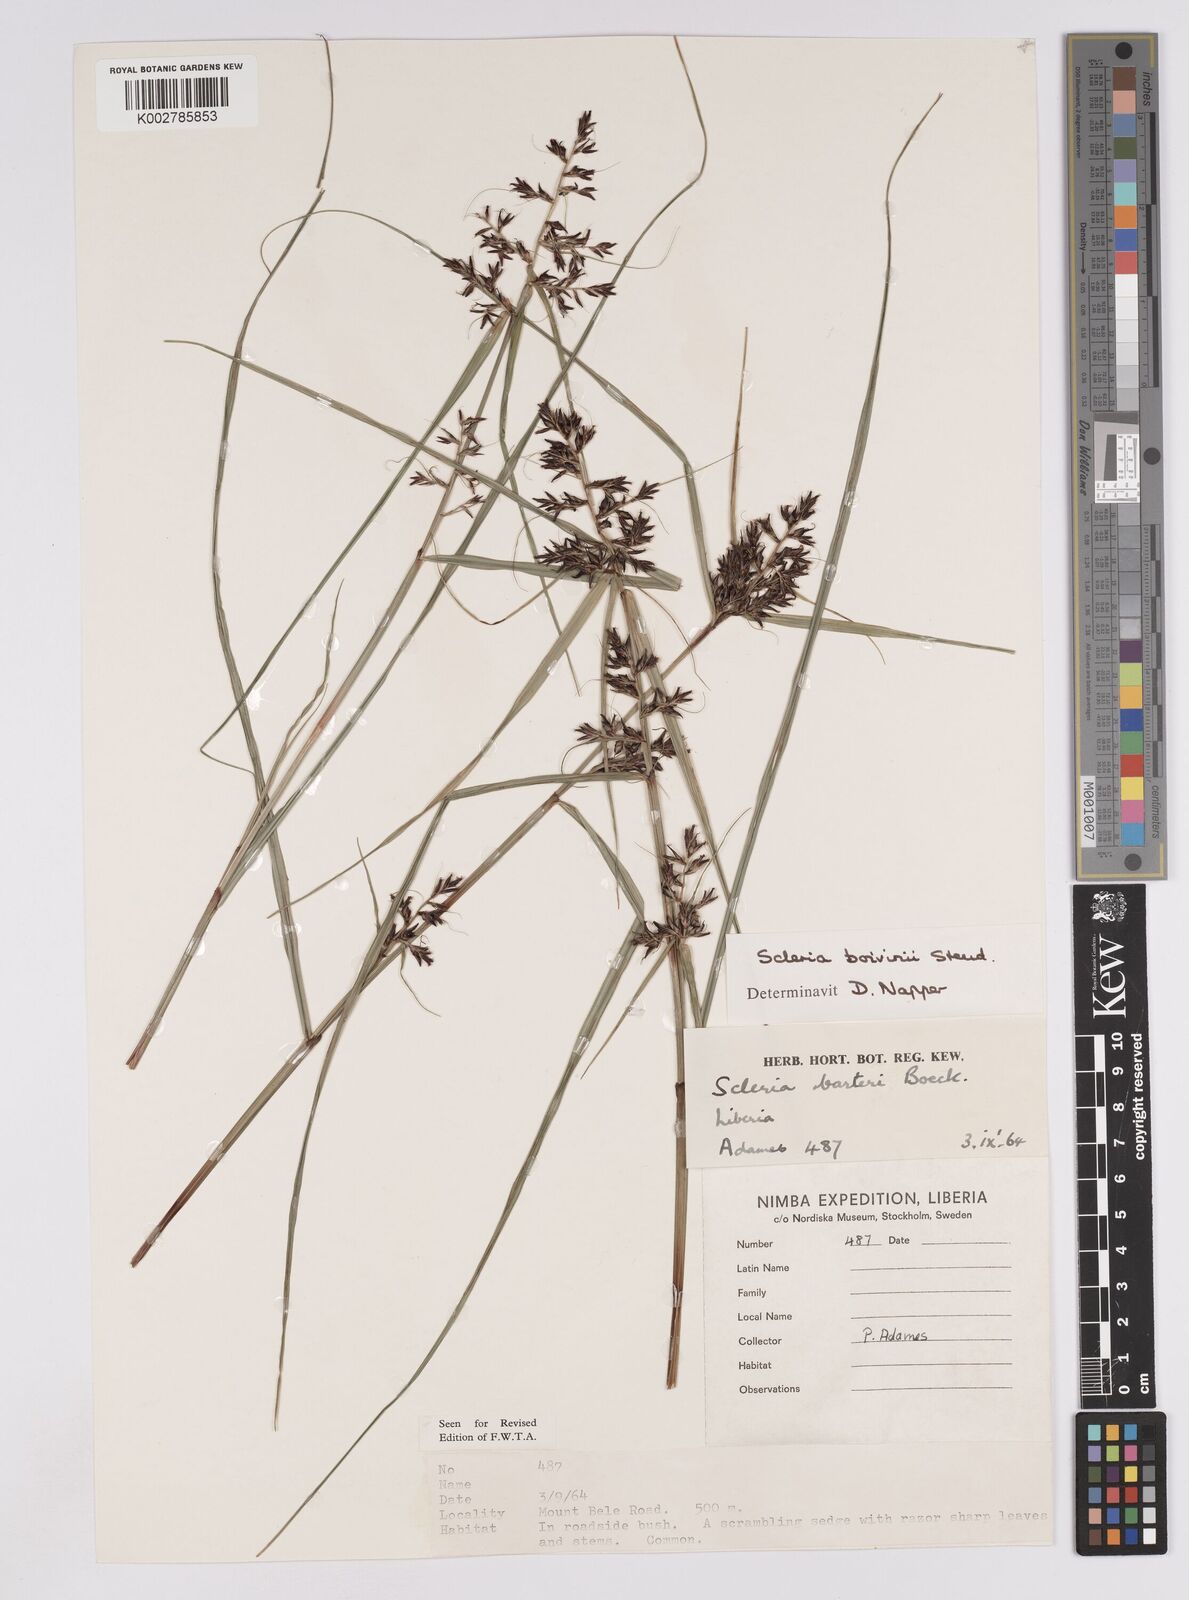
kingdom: Plantae
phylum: Tracheophyta
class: Liliopsida
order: Poales
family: Cyperaceae
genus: Scleria
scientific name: Scleria boivinii
